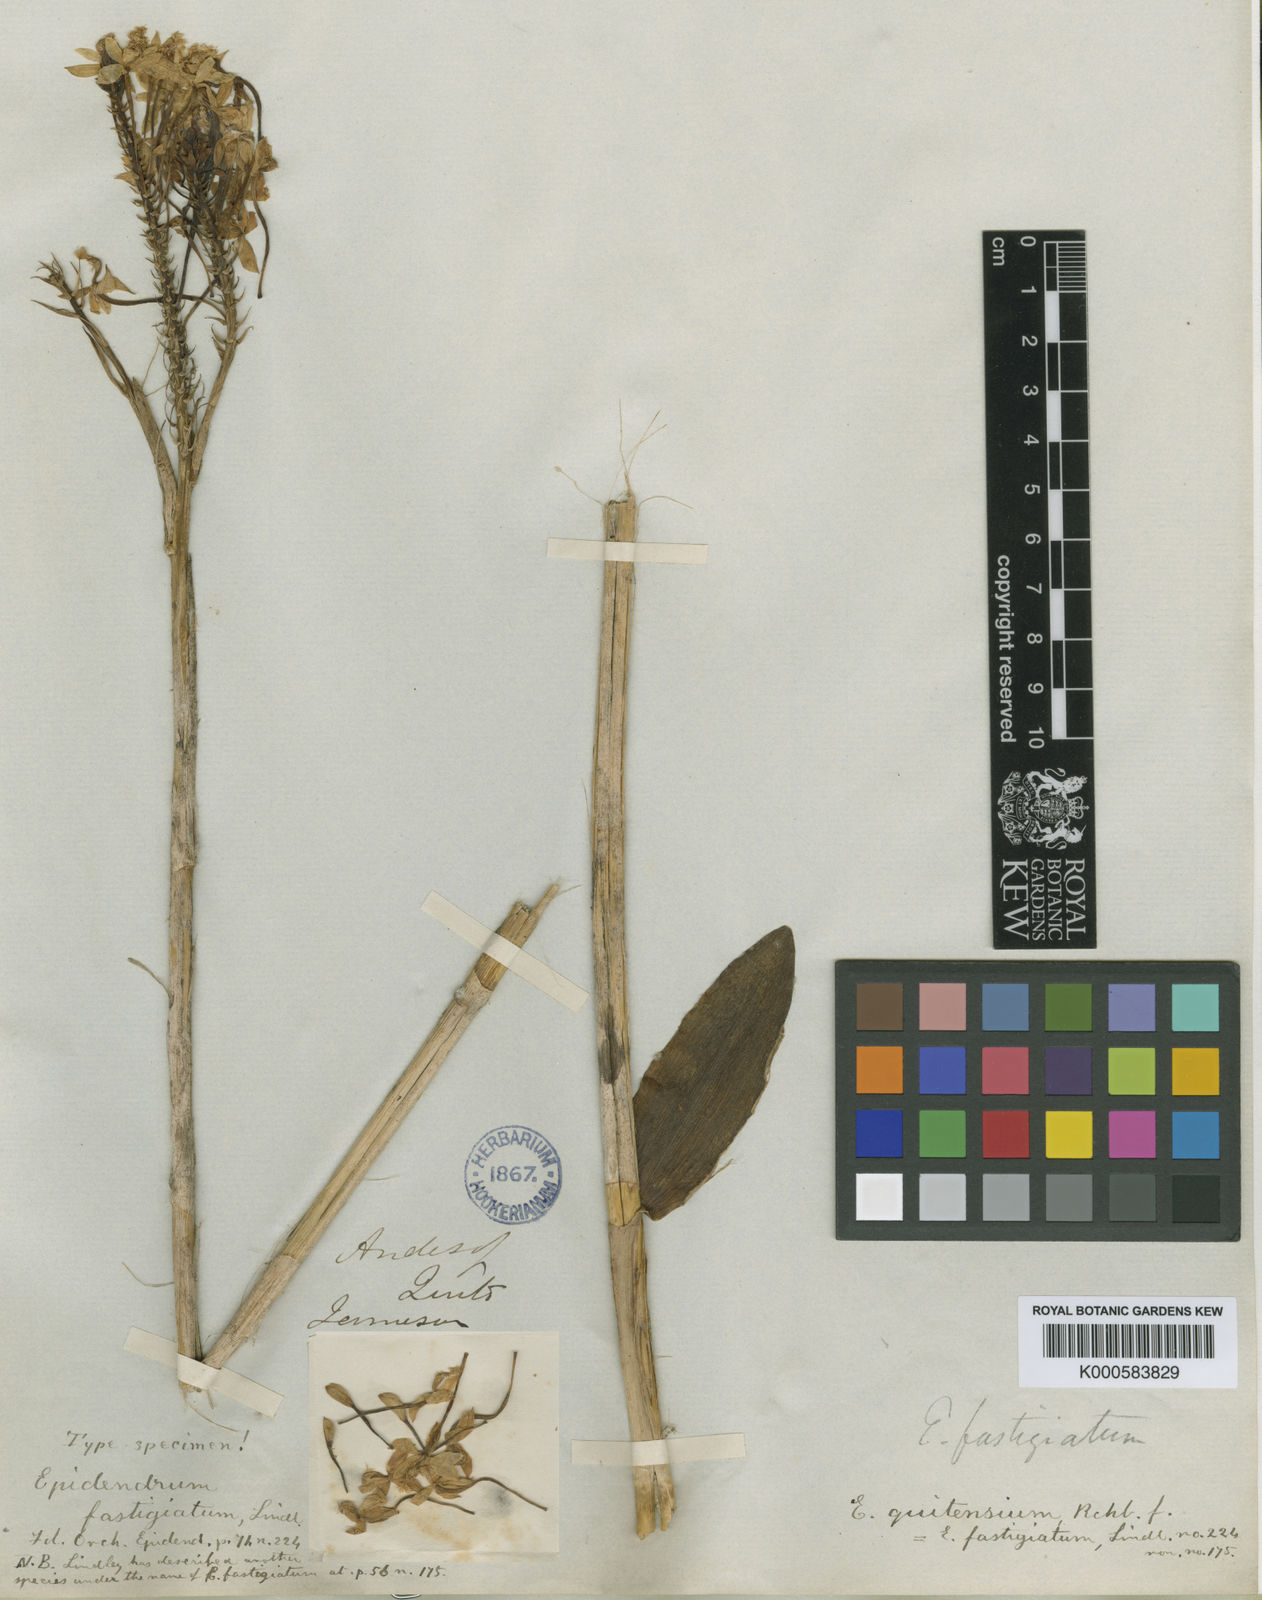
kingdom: Plantae
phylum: Tracheophyta
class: Liliopsida
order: Asparagales
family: Orchidaceae
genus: Epidendrum
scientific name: Epidendrum quitensium
